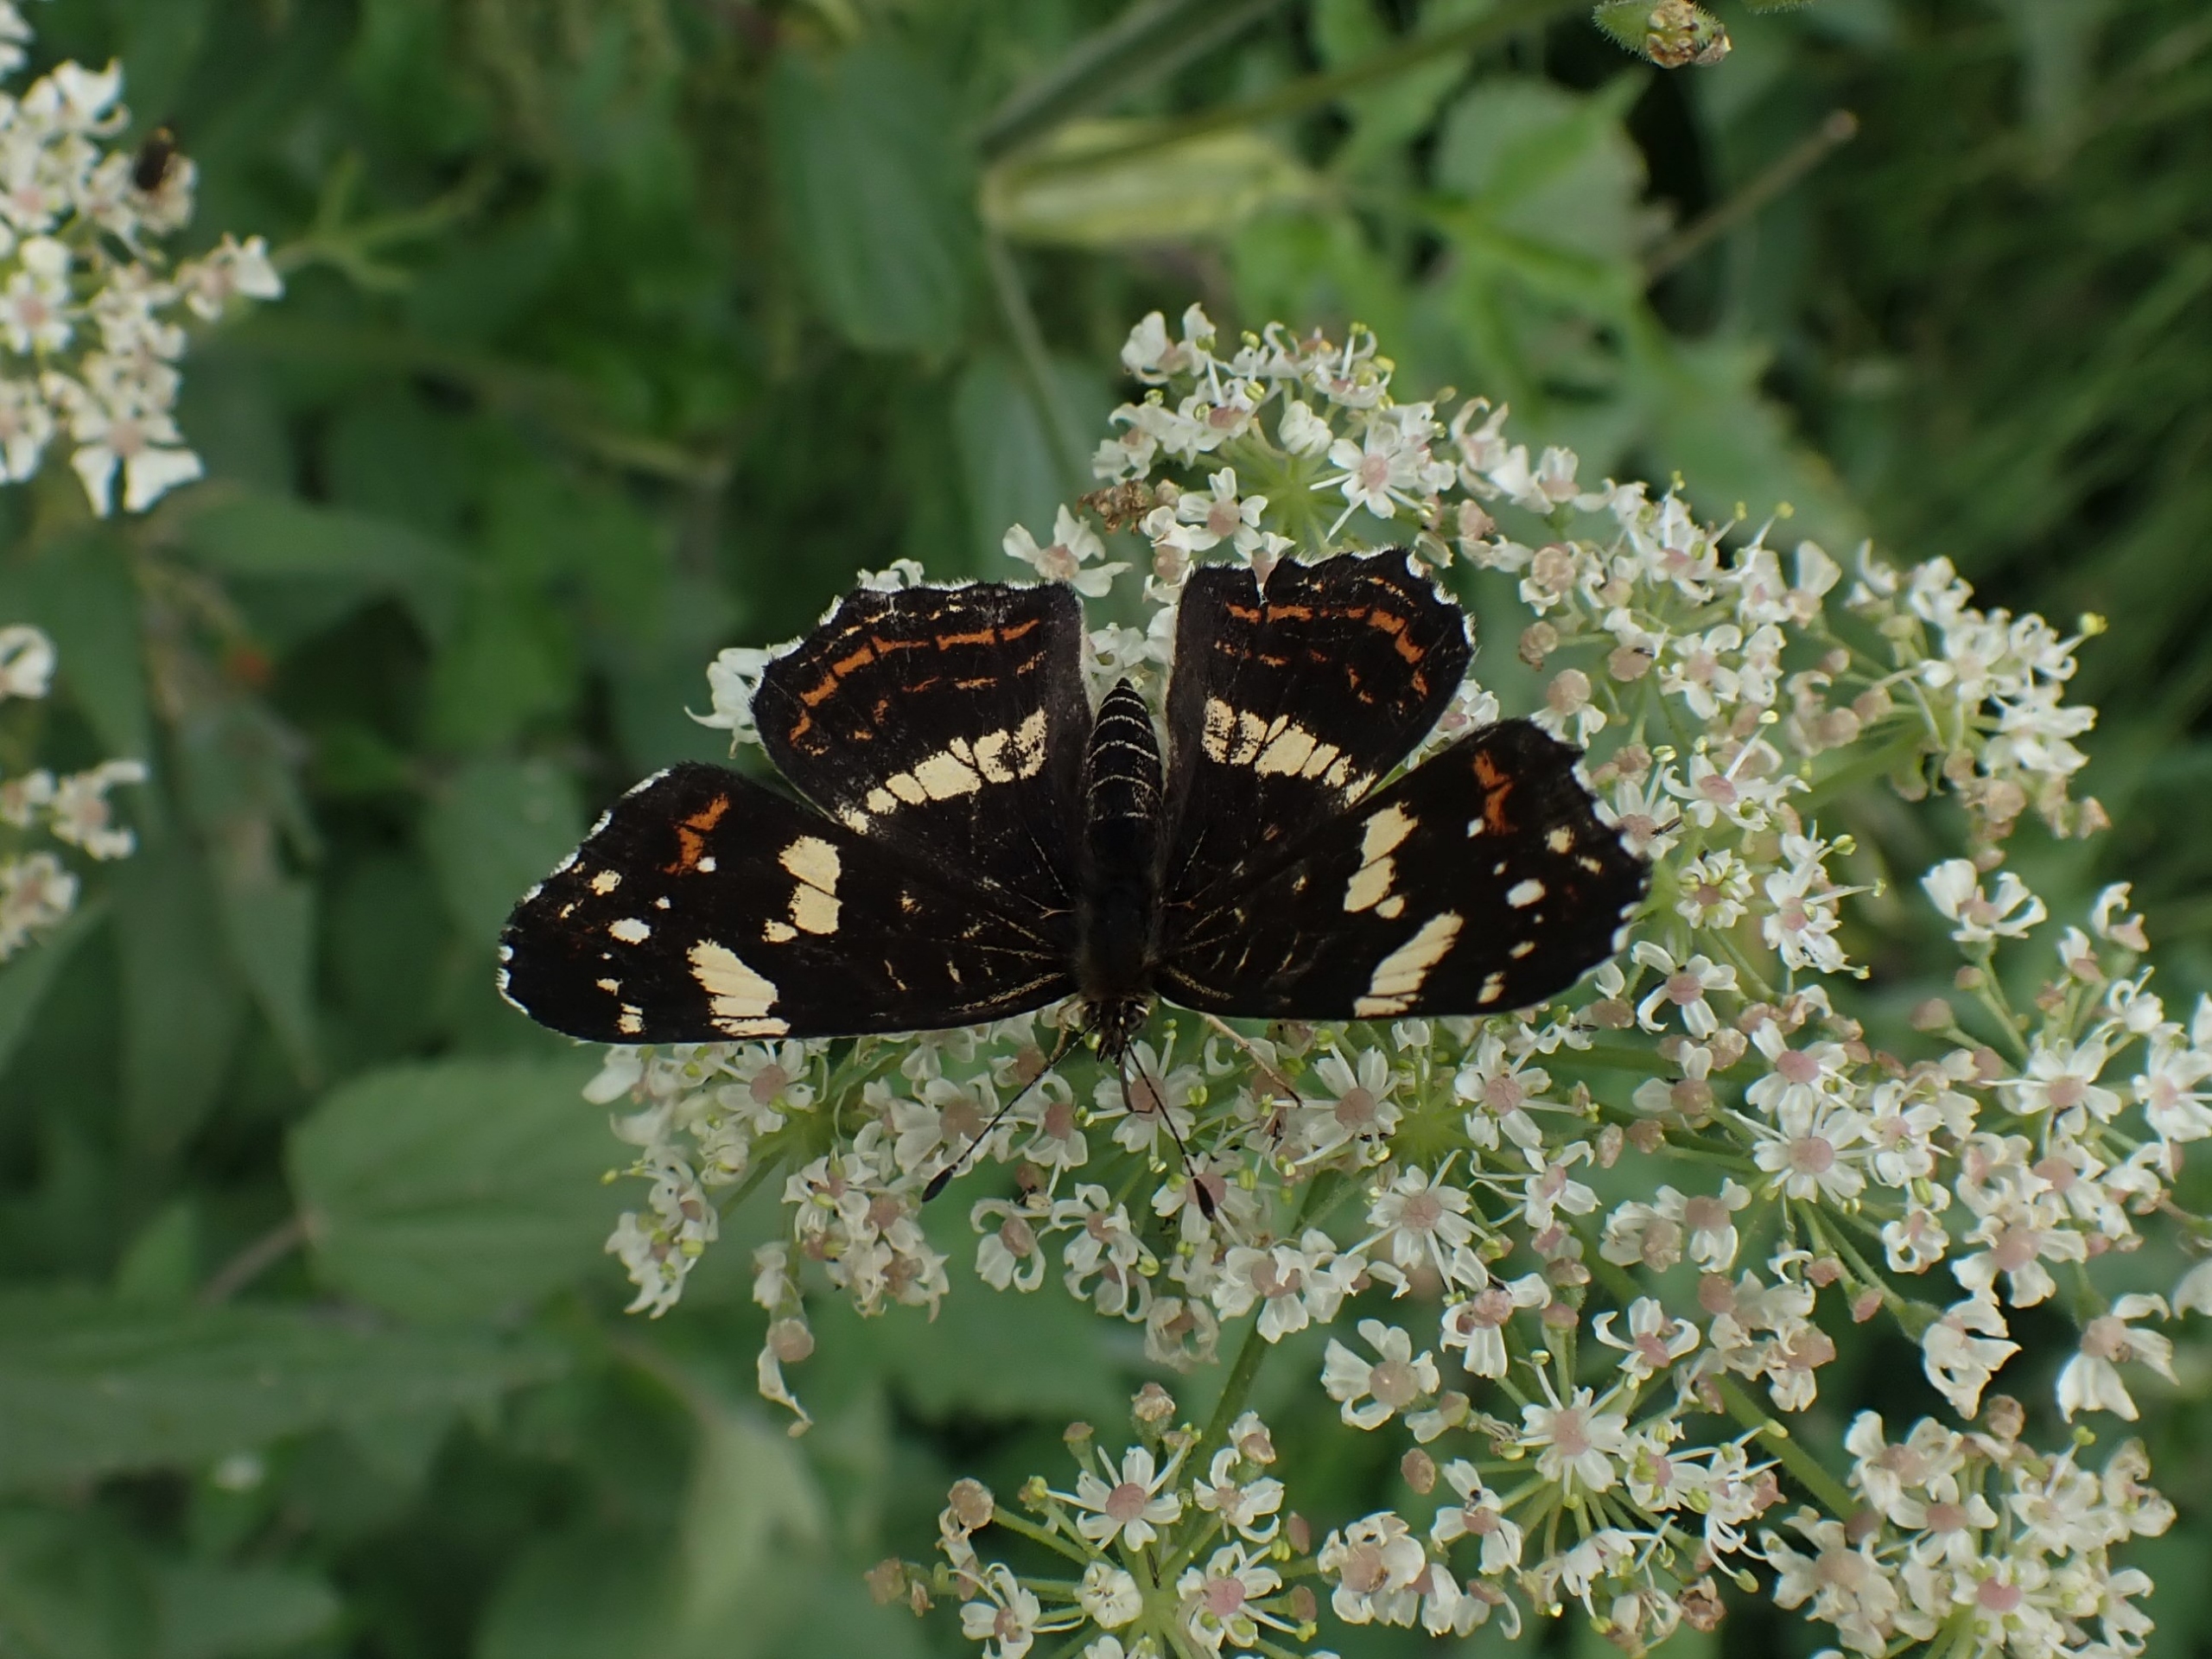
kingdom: Animalia
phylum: Arthropoda
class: Insecta
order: Lepidoptera
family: Nymphalidae
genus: Araschnia
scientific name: Araschnia levana
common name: Nældesommerfugl
